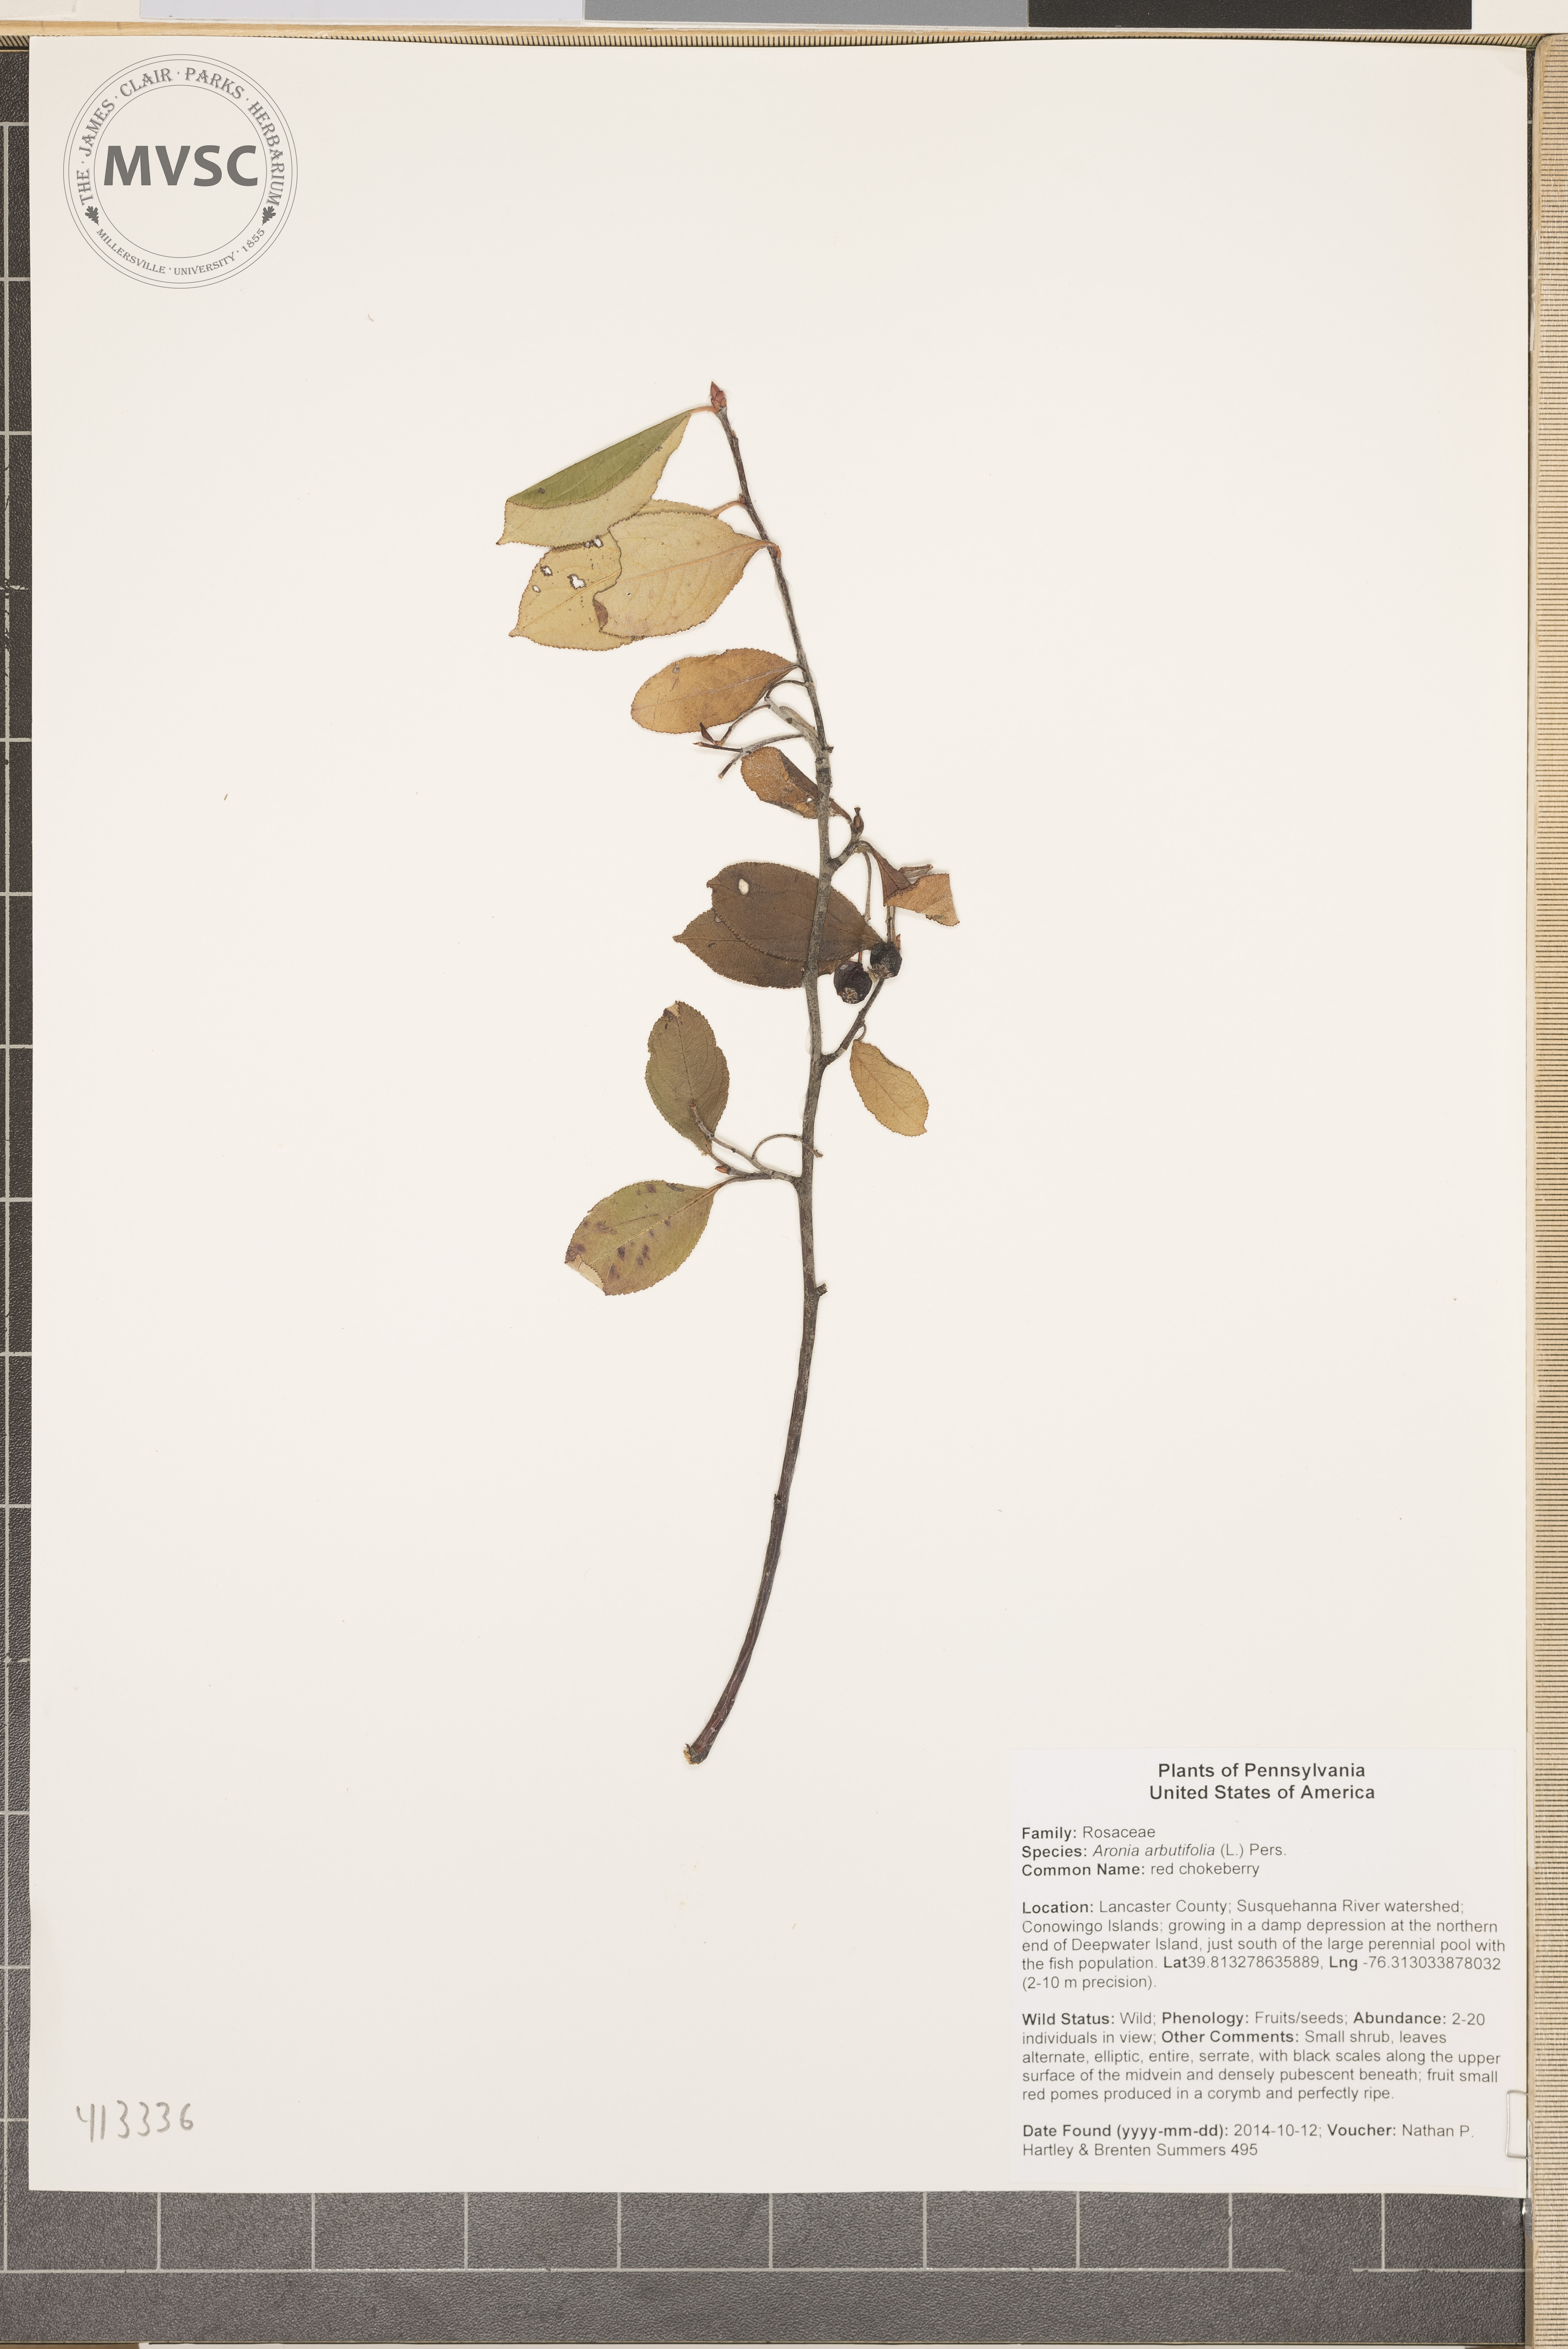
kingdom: Plantae
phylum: Tracheophyta
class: Magnoliopsida
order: Rosales
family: Rosaceae
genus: Aronia
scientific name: Aronia arbutifolia
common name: red chokeberry
